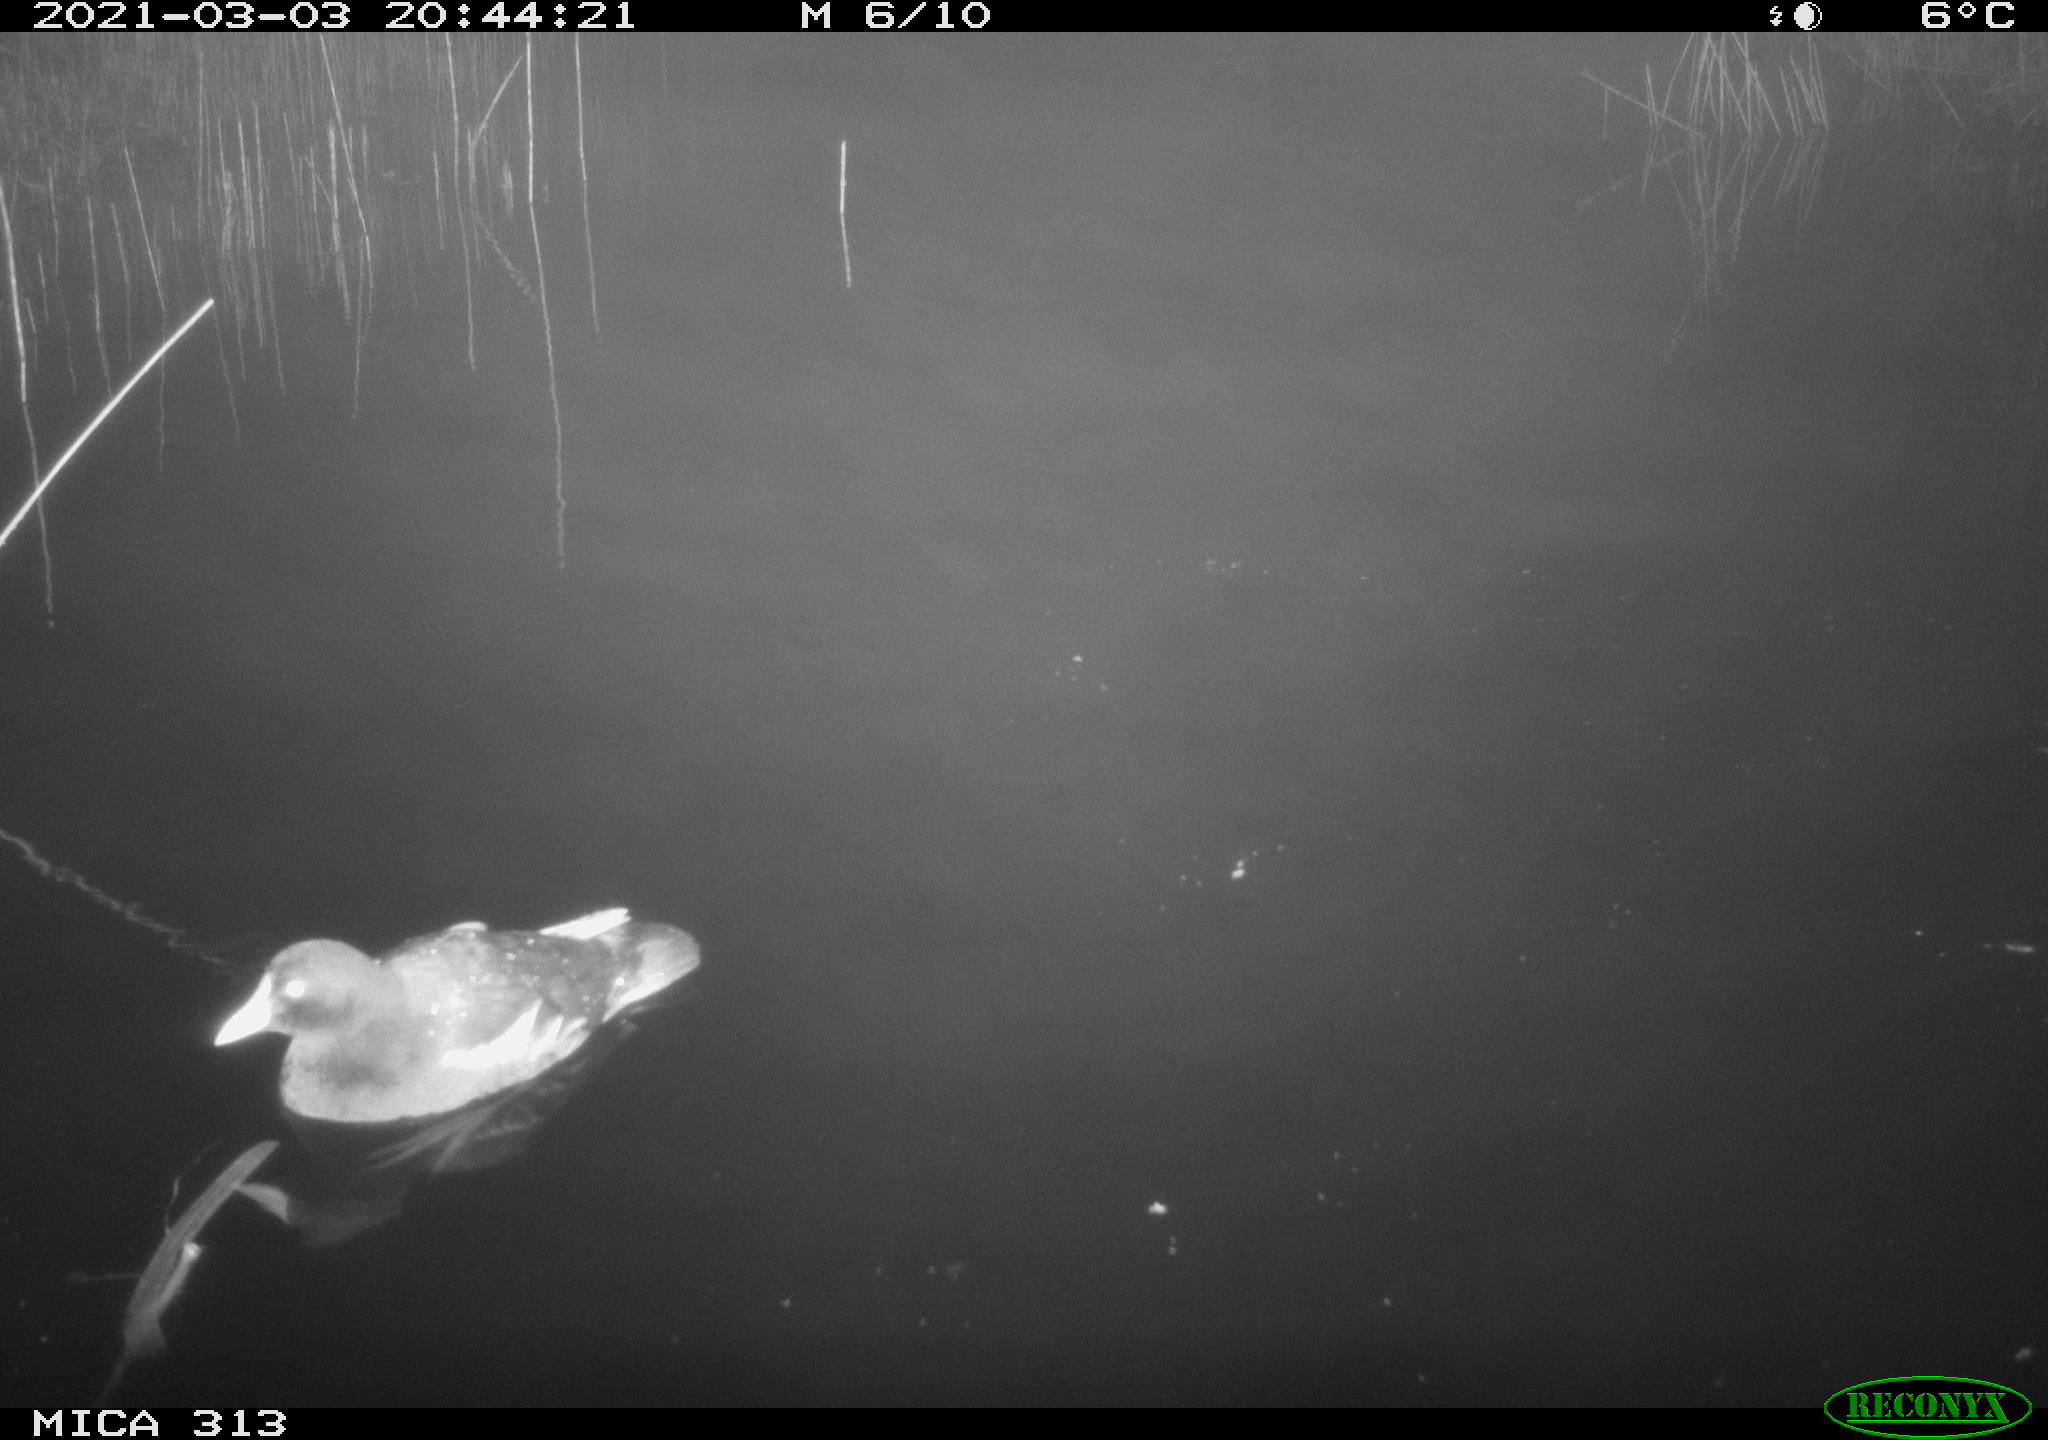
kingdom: Animalia
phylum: Chordata
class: Aves
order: Gruiformes
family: Rallidae
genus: Gallinula
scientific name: Gallinula chloropus
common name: Common moorhen
